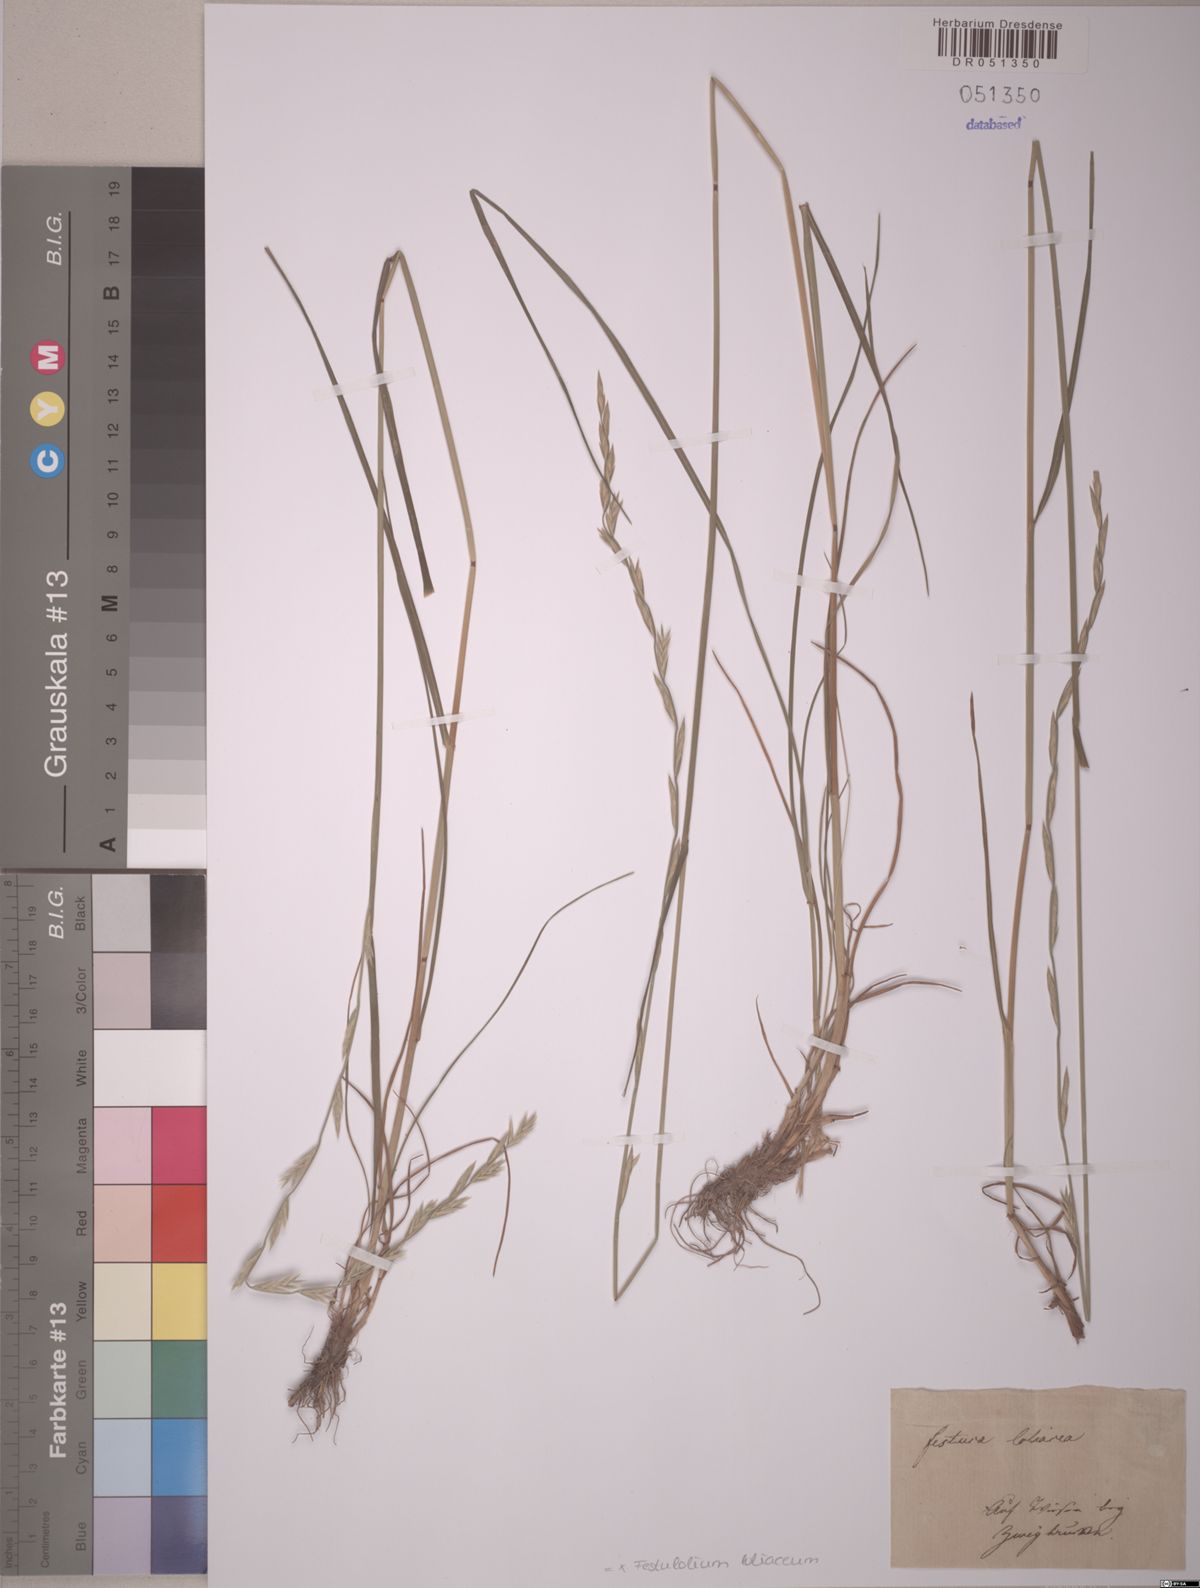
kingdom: Plantae
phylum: Tracheophyta
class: Liliopsida
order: Poales
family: Poaceae
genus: Lolium
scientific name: Lolium elongatum
